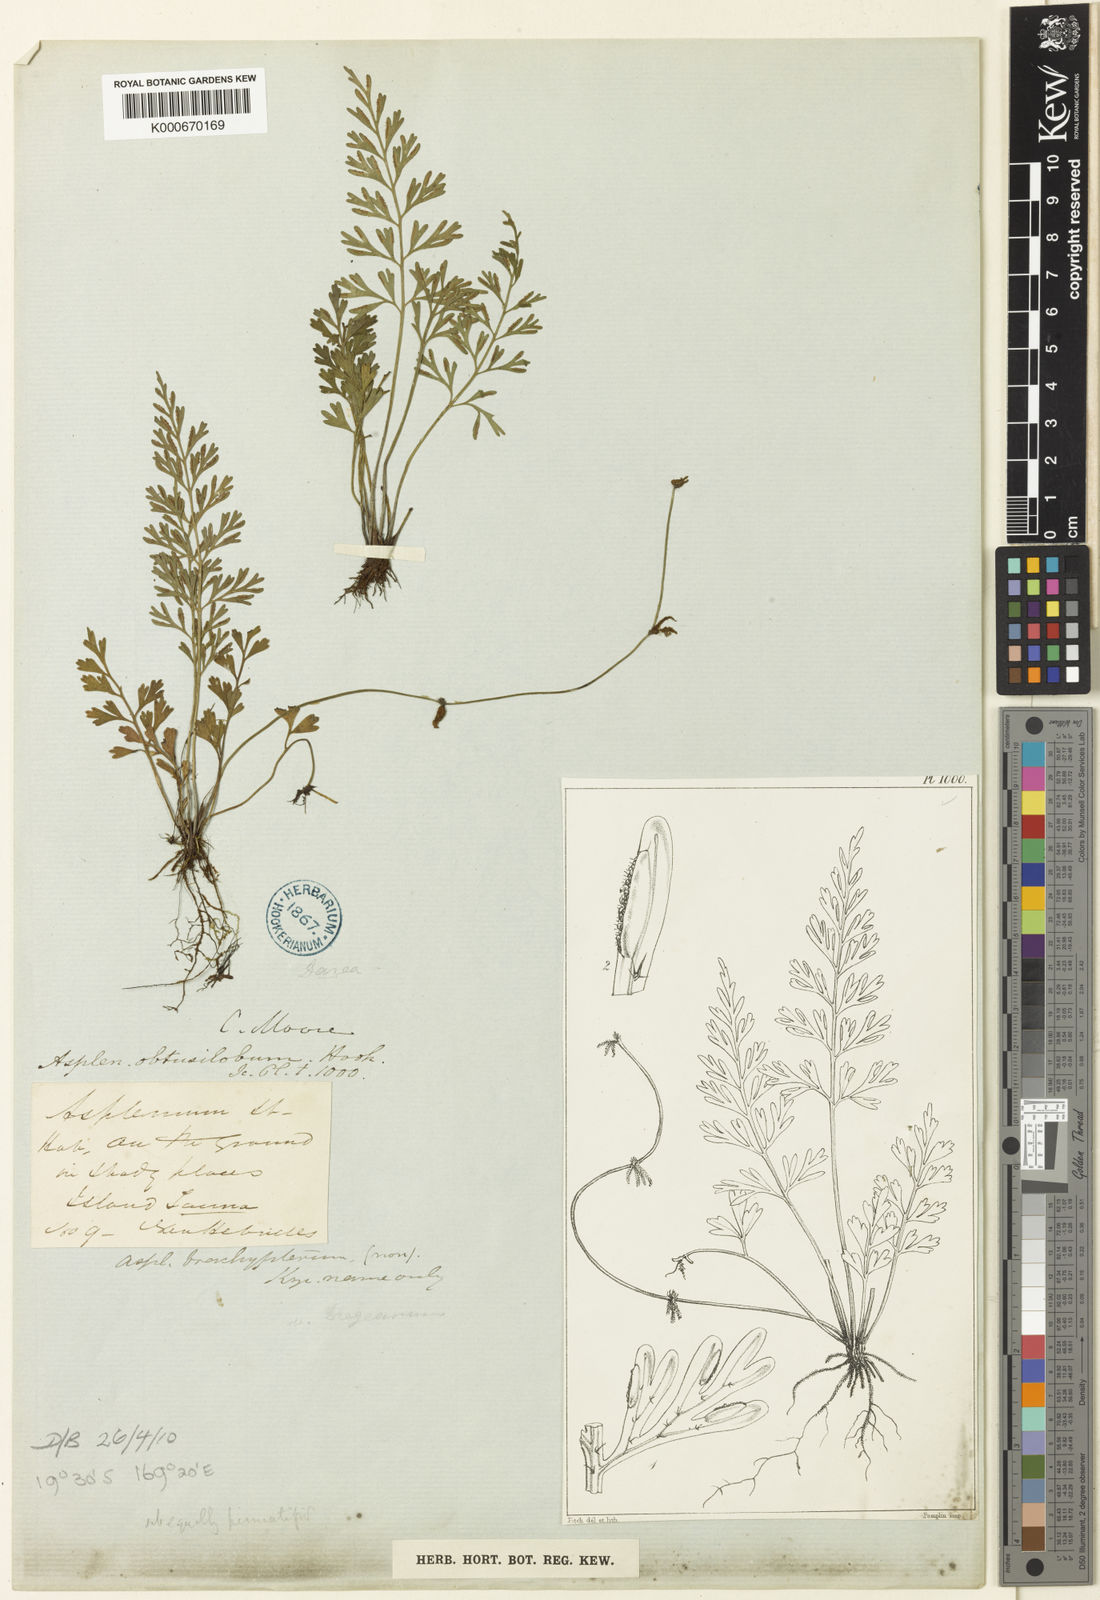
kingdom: Plantae
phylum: Tracheophyta
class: Polypodiopsida
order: Polypodiales
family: Aspleniaceae
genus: Asplenium
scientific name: Asplenium bipinnatifidum
